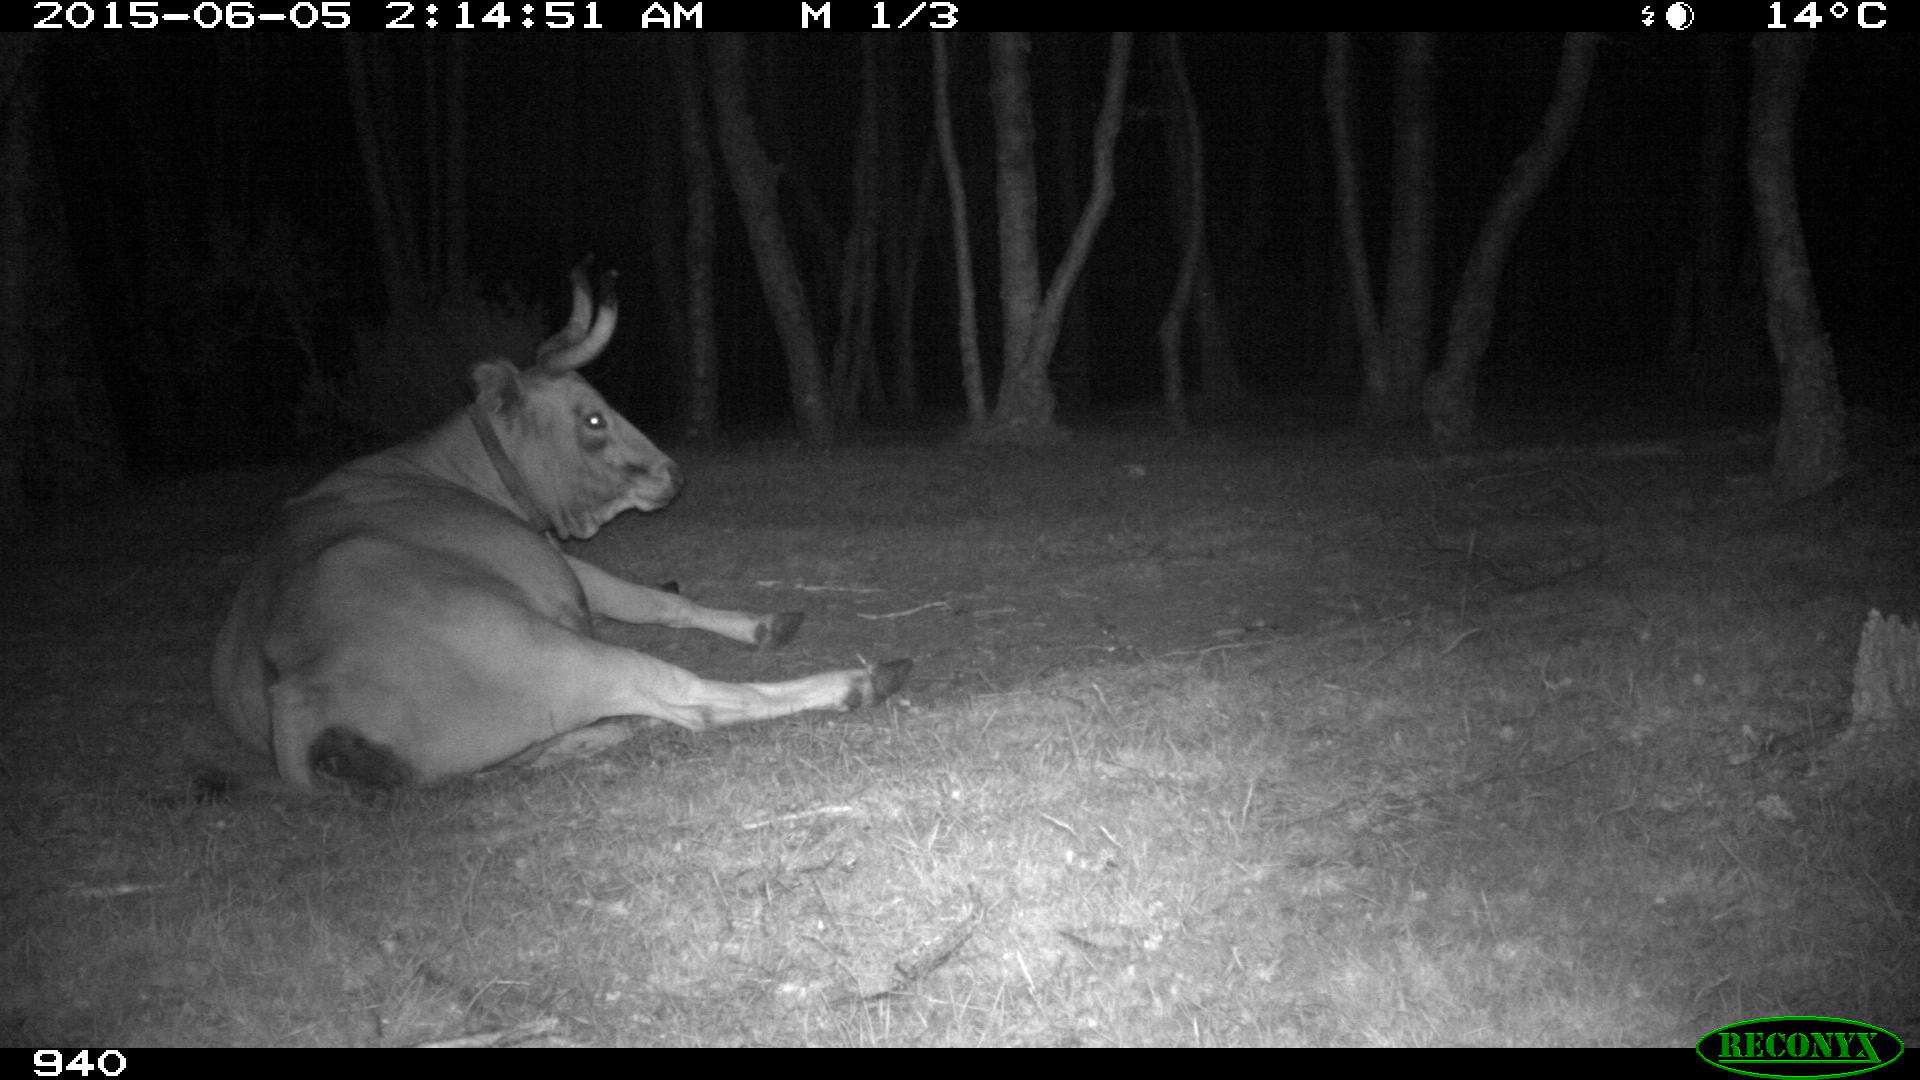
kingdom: Animalia
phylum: Chordata
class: Mammalia
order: Artiodactyla
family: Bovidae
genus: Bos
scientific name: Bos taurus
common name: Domesticated cattle
